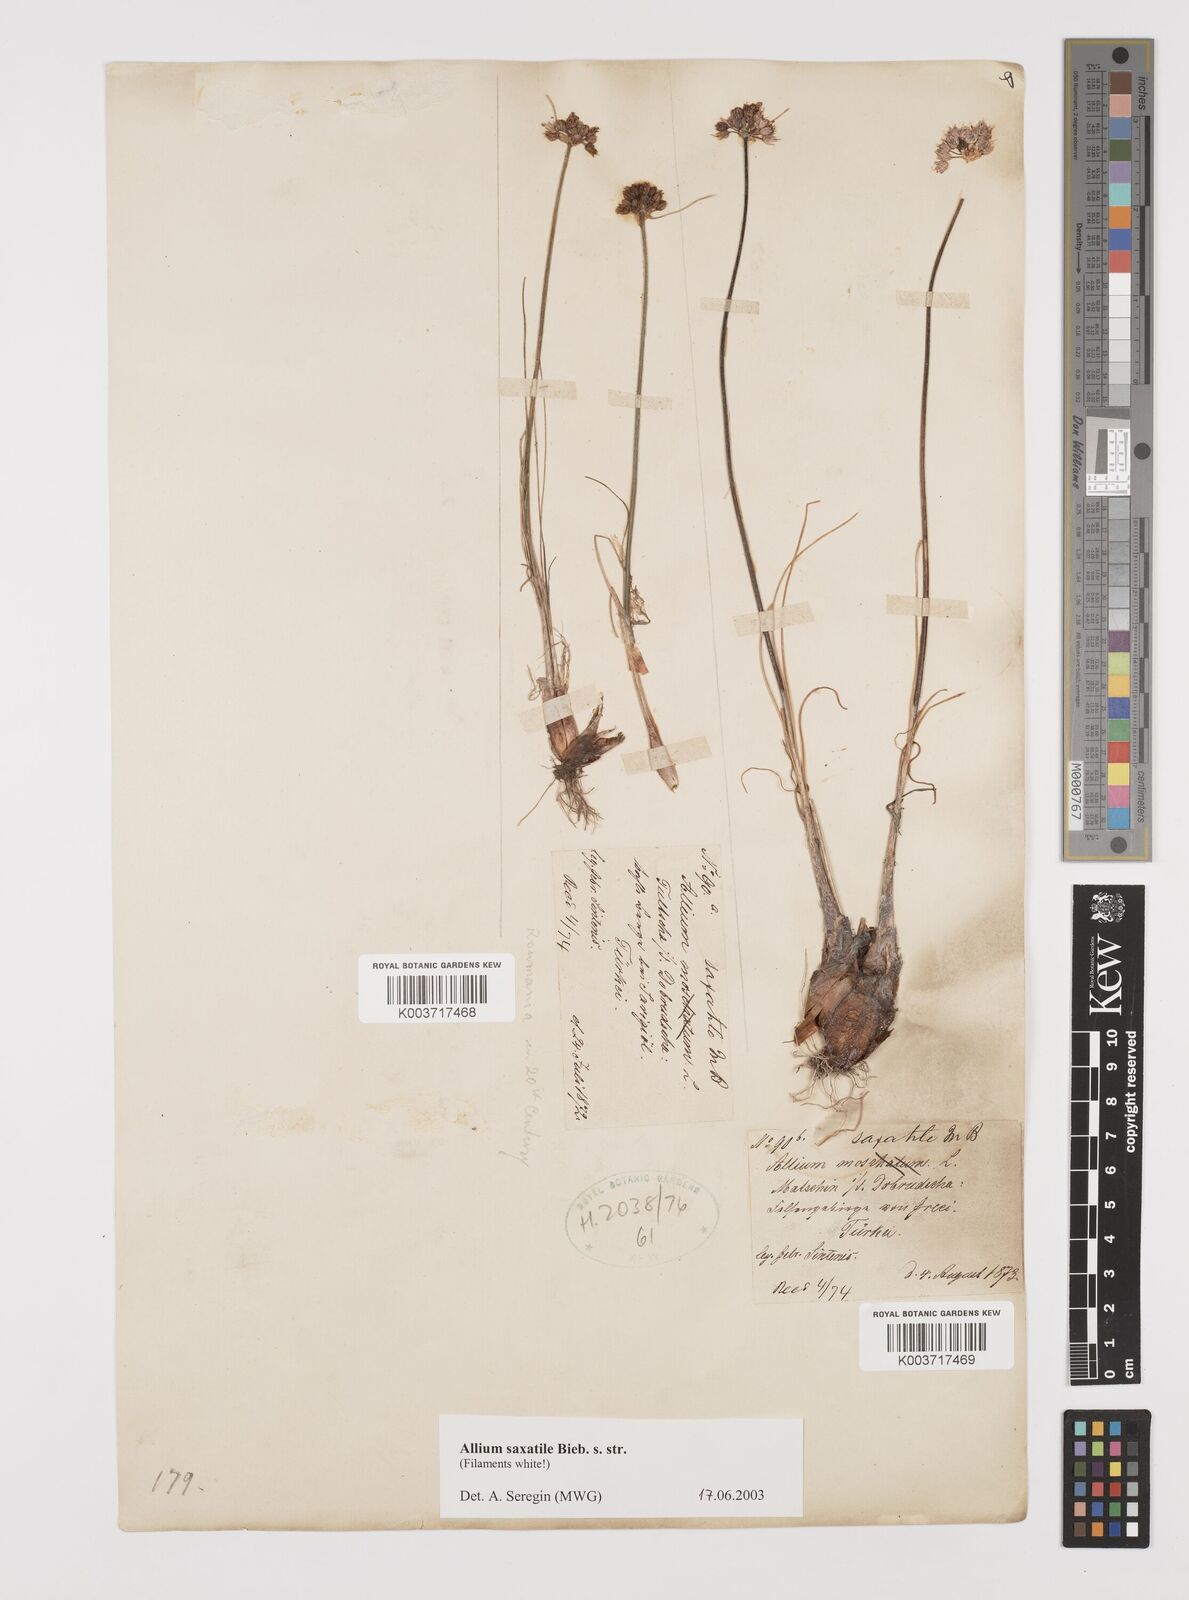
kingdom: Plantae
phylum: Tracheophyta
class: Liliopsida
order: Asparagales
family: Amaryllidaceae
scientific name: Amaryllidaceae
